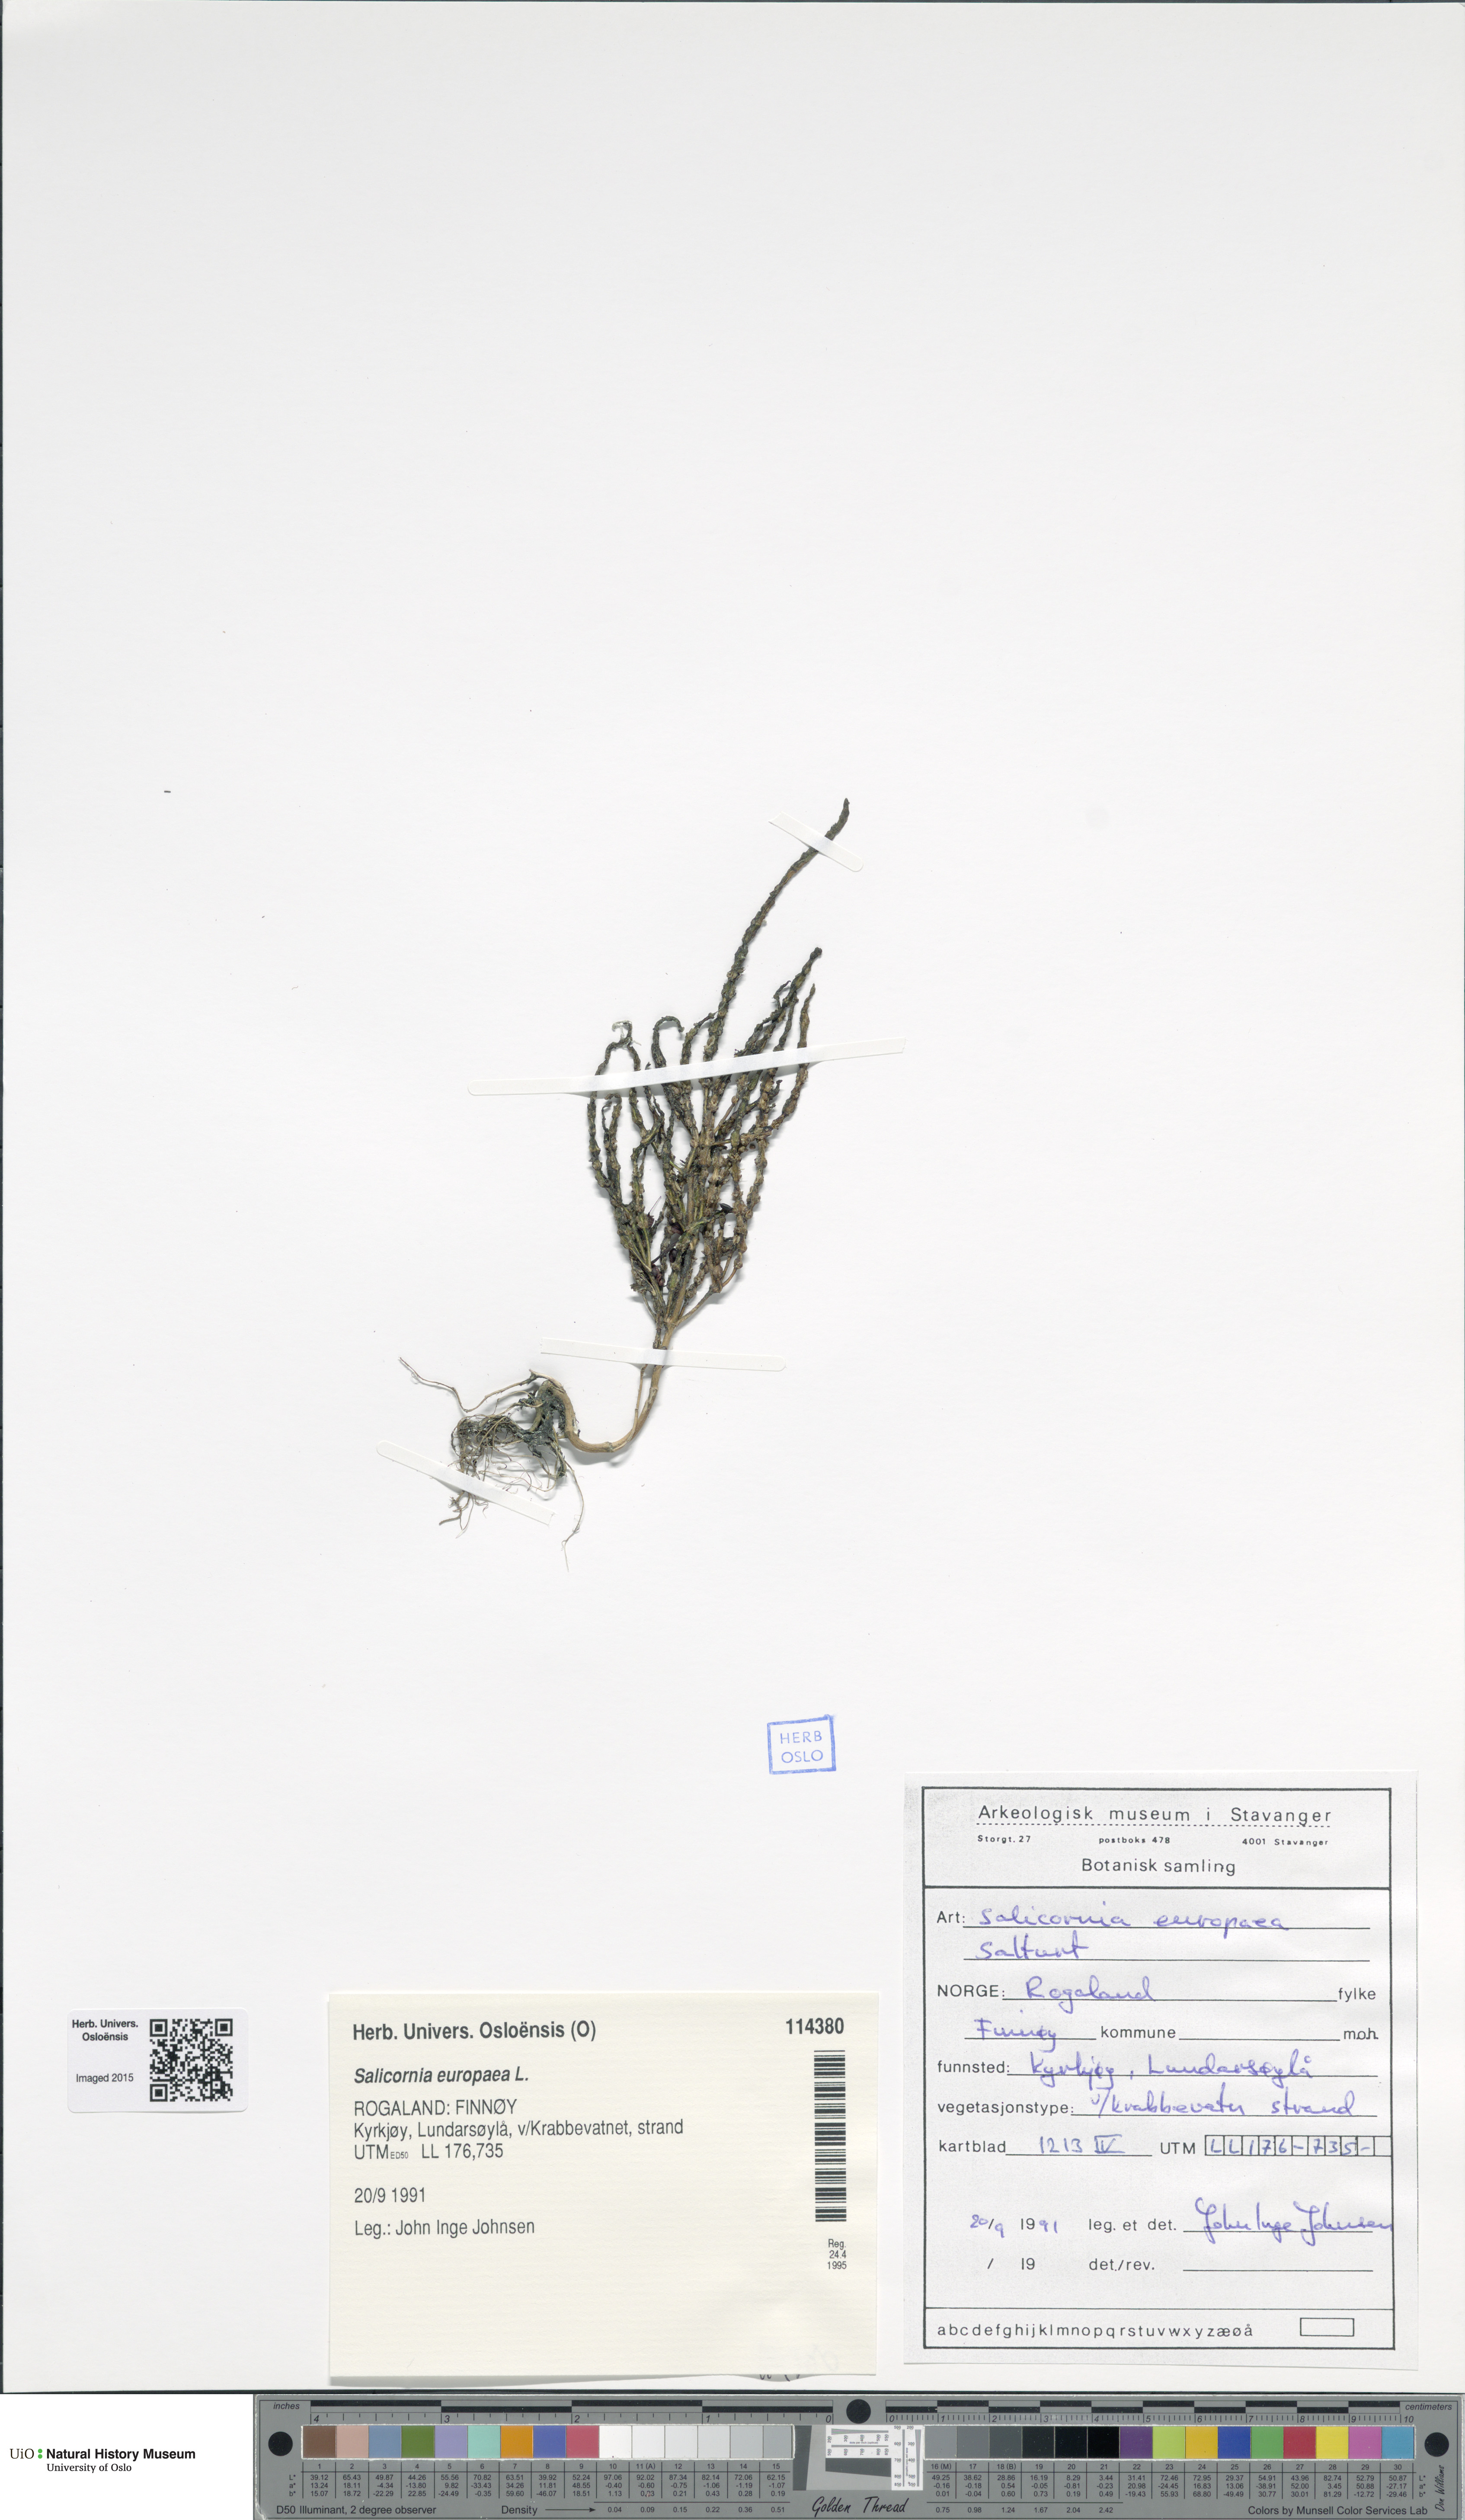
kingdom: Plantae
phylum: Tracheophyta
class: Magnoliopsida
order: Caryophyllales
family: Amaranthaceae
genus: Salicornia
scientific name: Salicornia europaea
